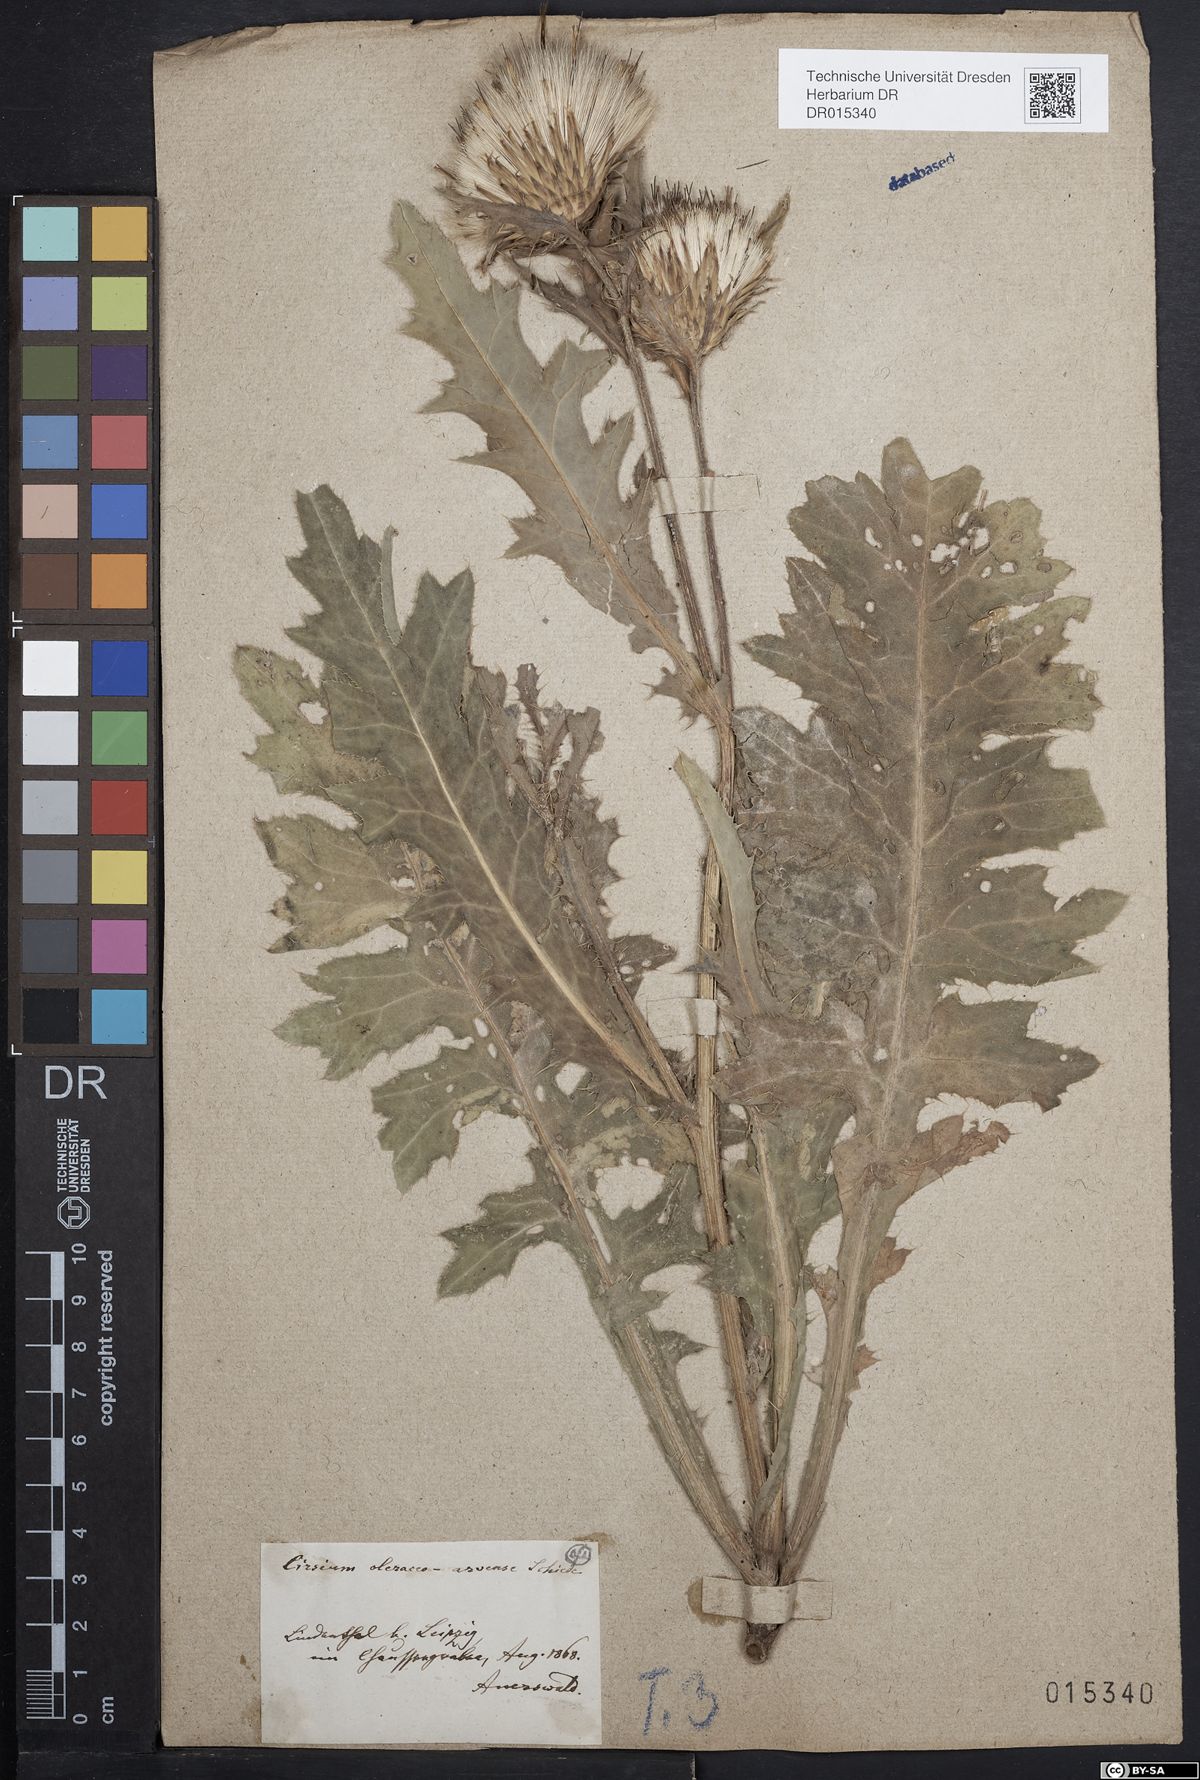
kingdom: Plantae
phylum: Tracheophyta
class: Magnoliopsida
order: Asterales
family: Asteraceae
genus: Cirsium
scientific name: Cirsium sessile
